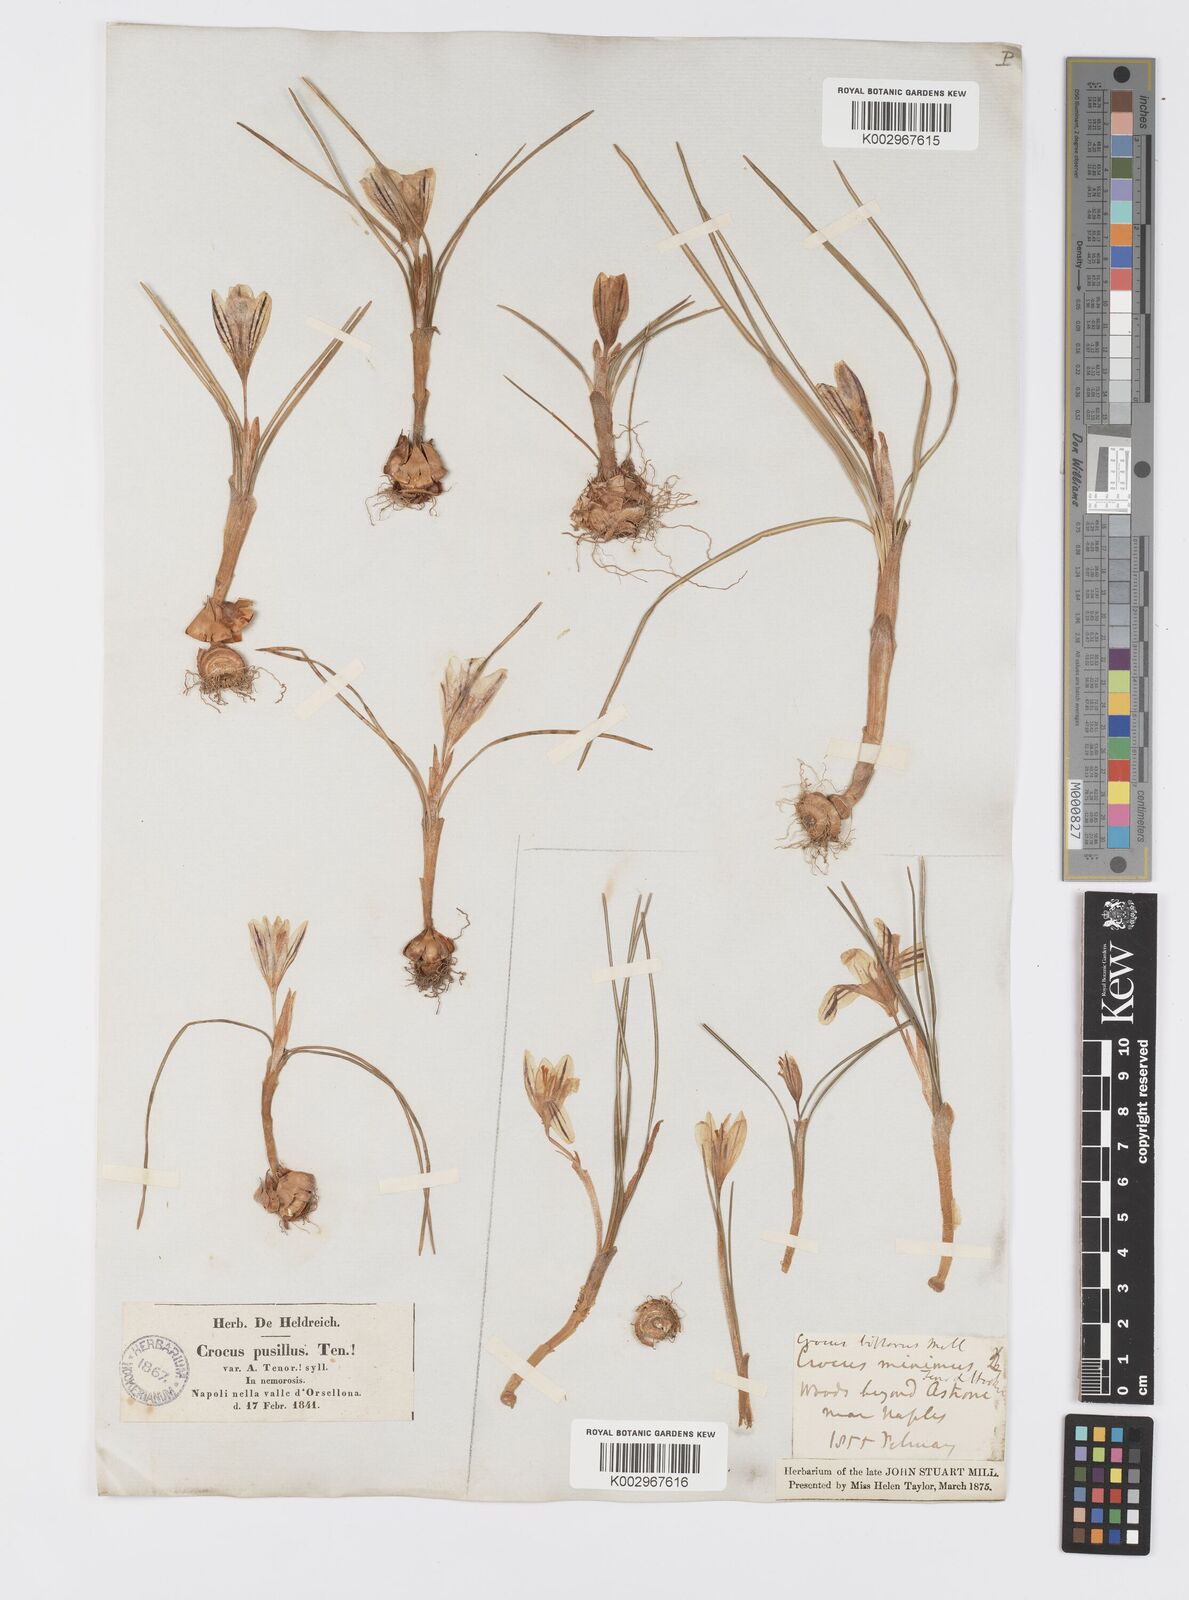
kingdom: Plantae
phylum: Tracheophyta
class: Liliopsida
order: Asparagales
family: Iridaceae
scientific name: Iridaceae
